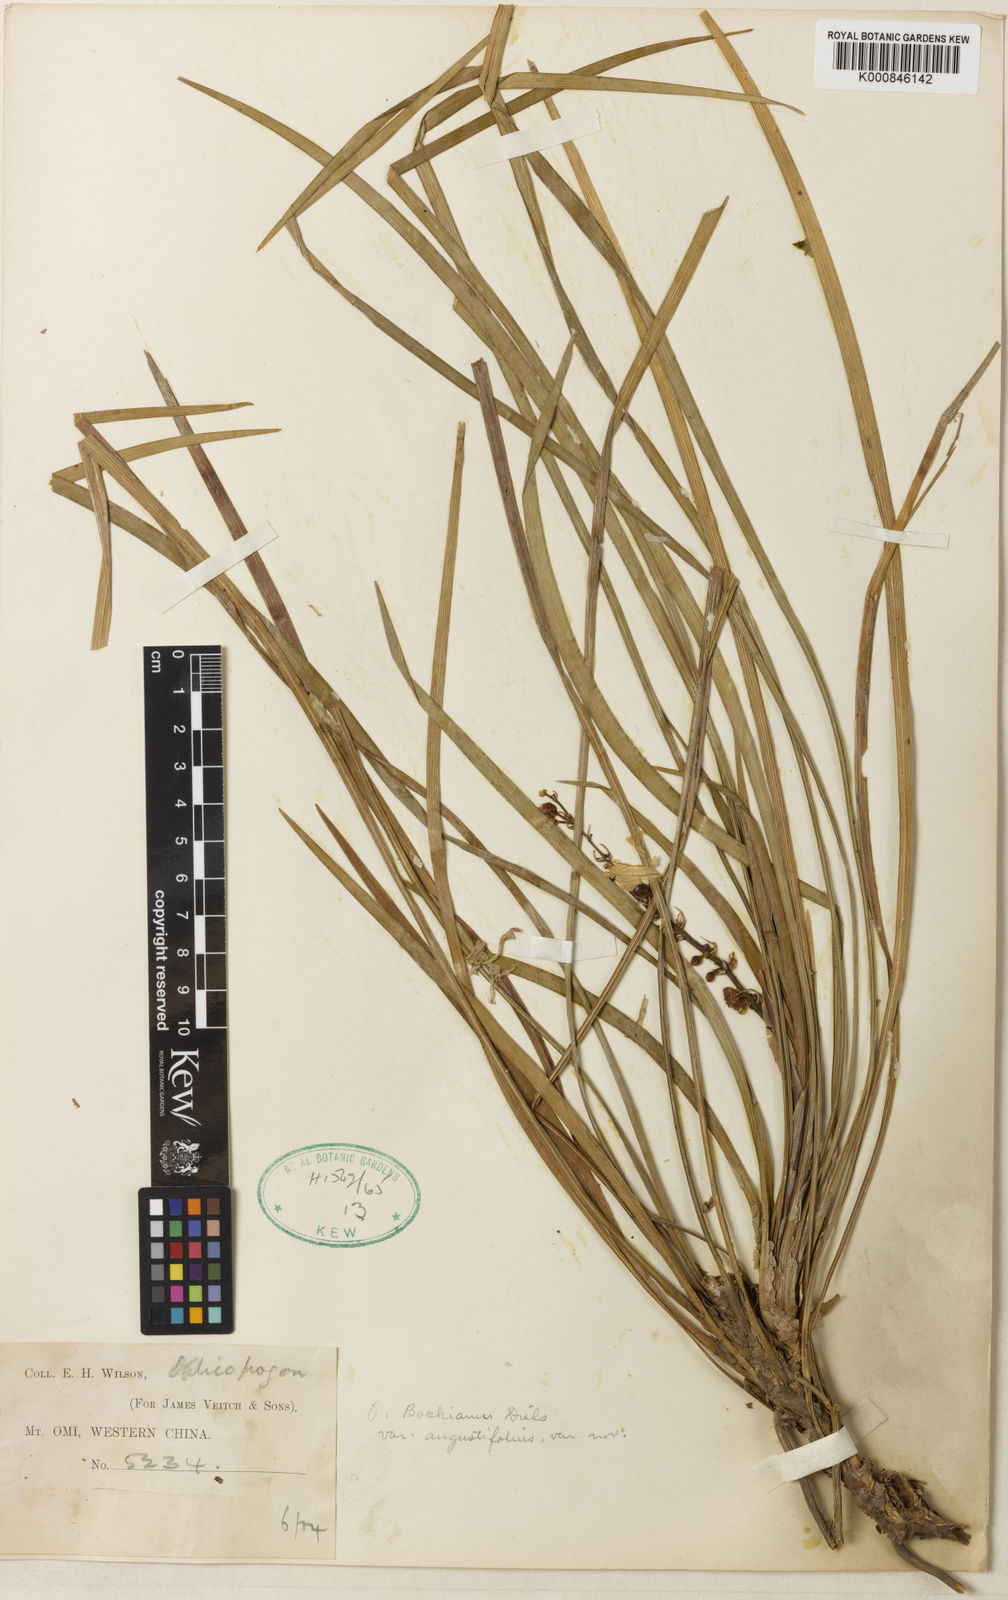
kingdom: Plantae
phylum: Tracheophyta
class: Liliopsida
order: Asparagales
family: Asparagaceae
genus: Ophiopogon
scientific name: Ophiopogon angustifoliatus
